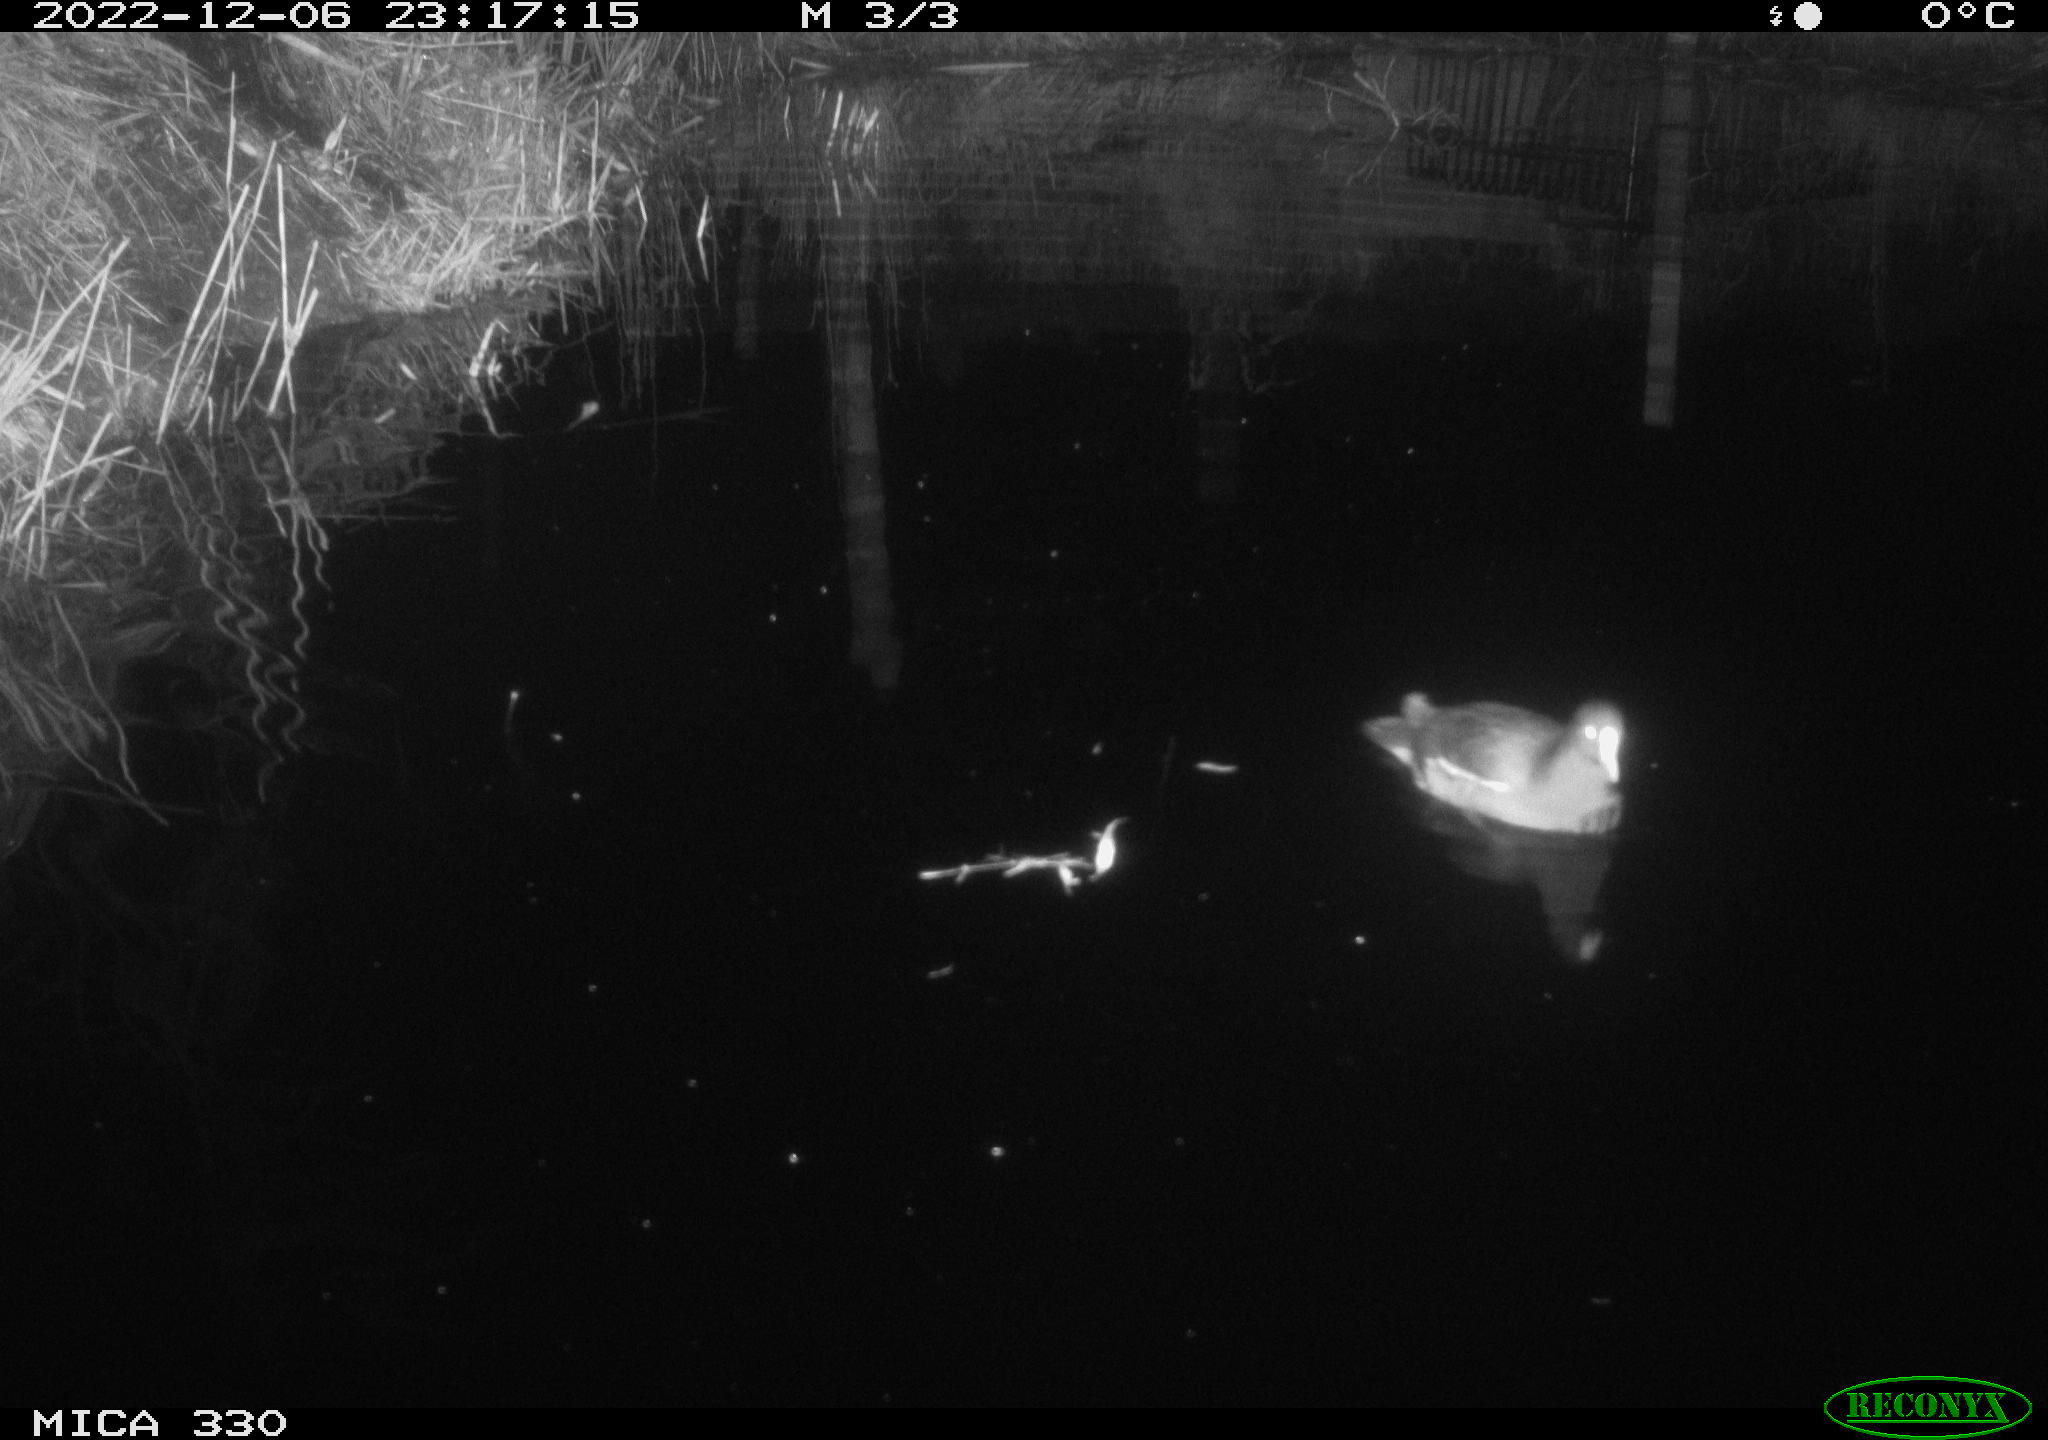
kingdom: Animalia
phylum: Chordata
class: Aves
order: Gruiformes
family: Rallidae
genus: Gallinula
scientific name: Gallinula chloropus
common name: Common moorhen
